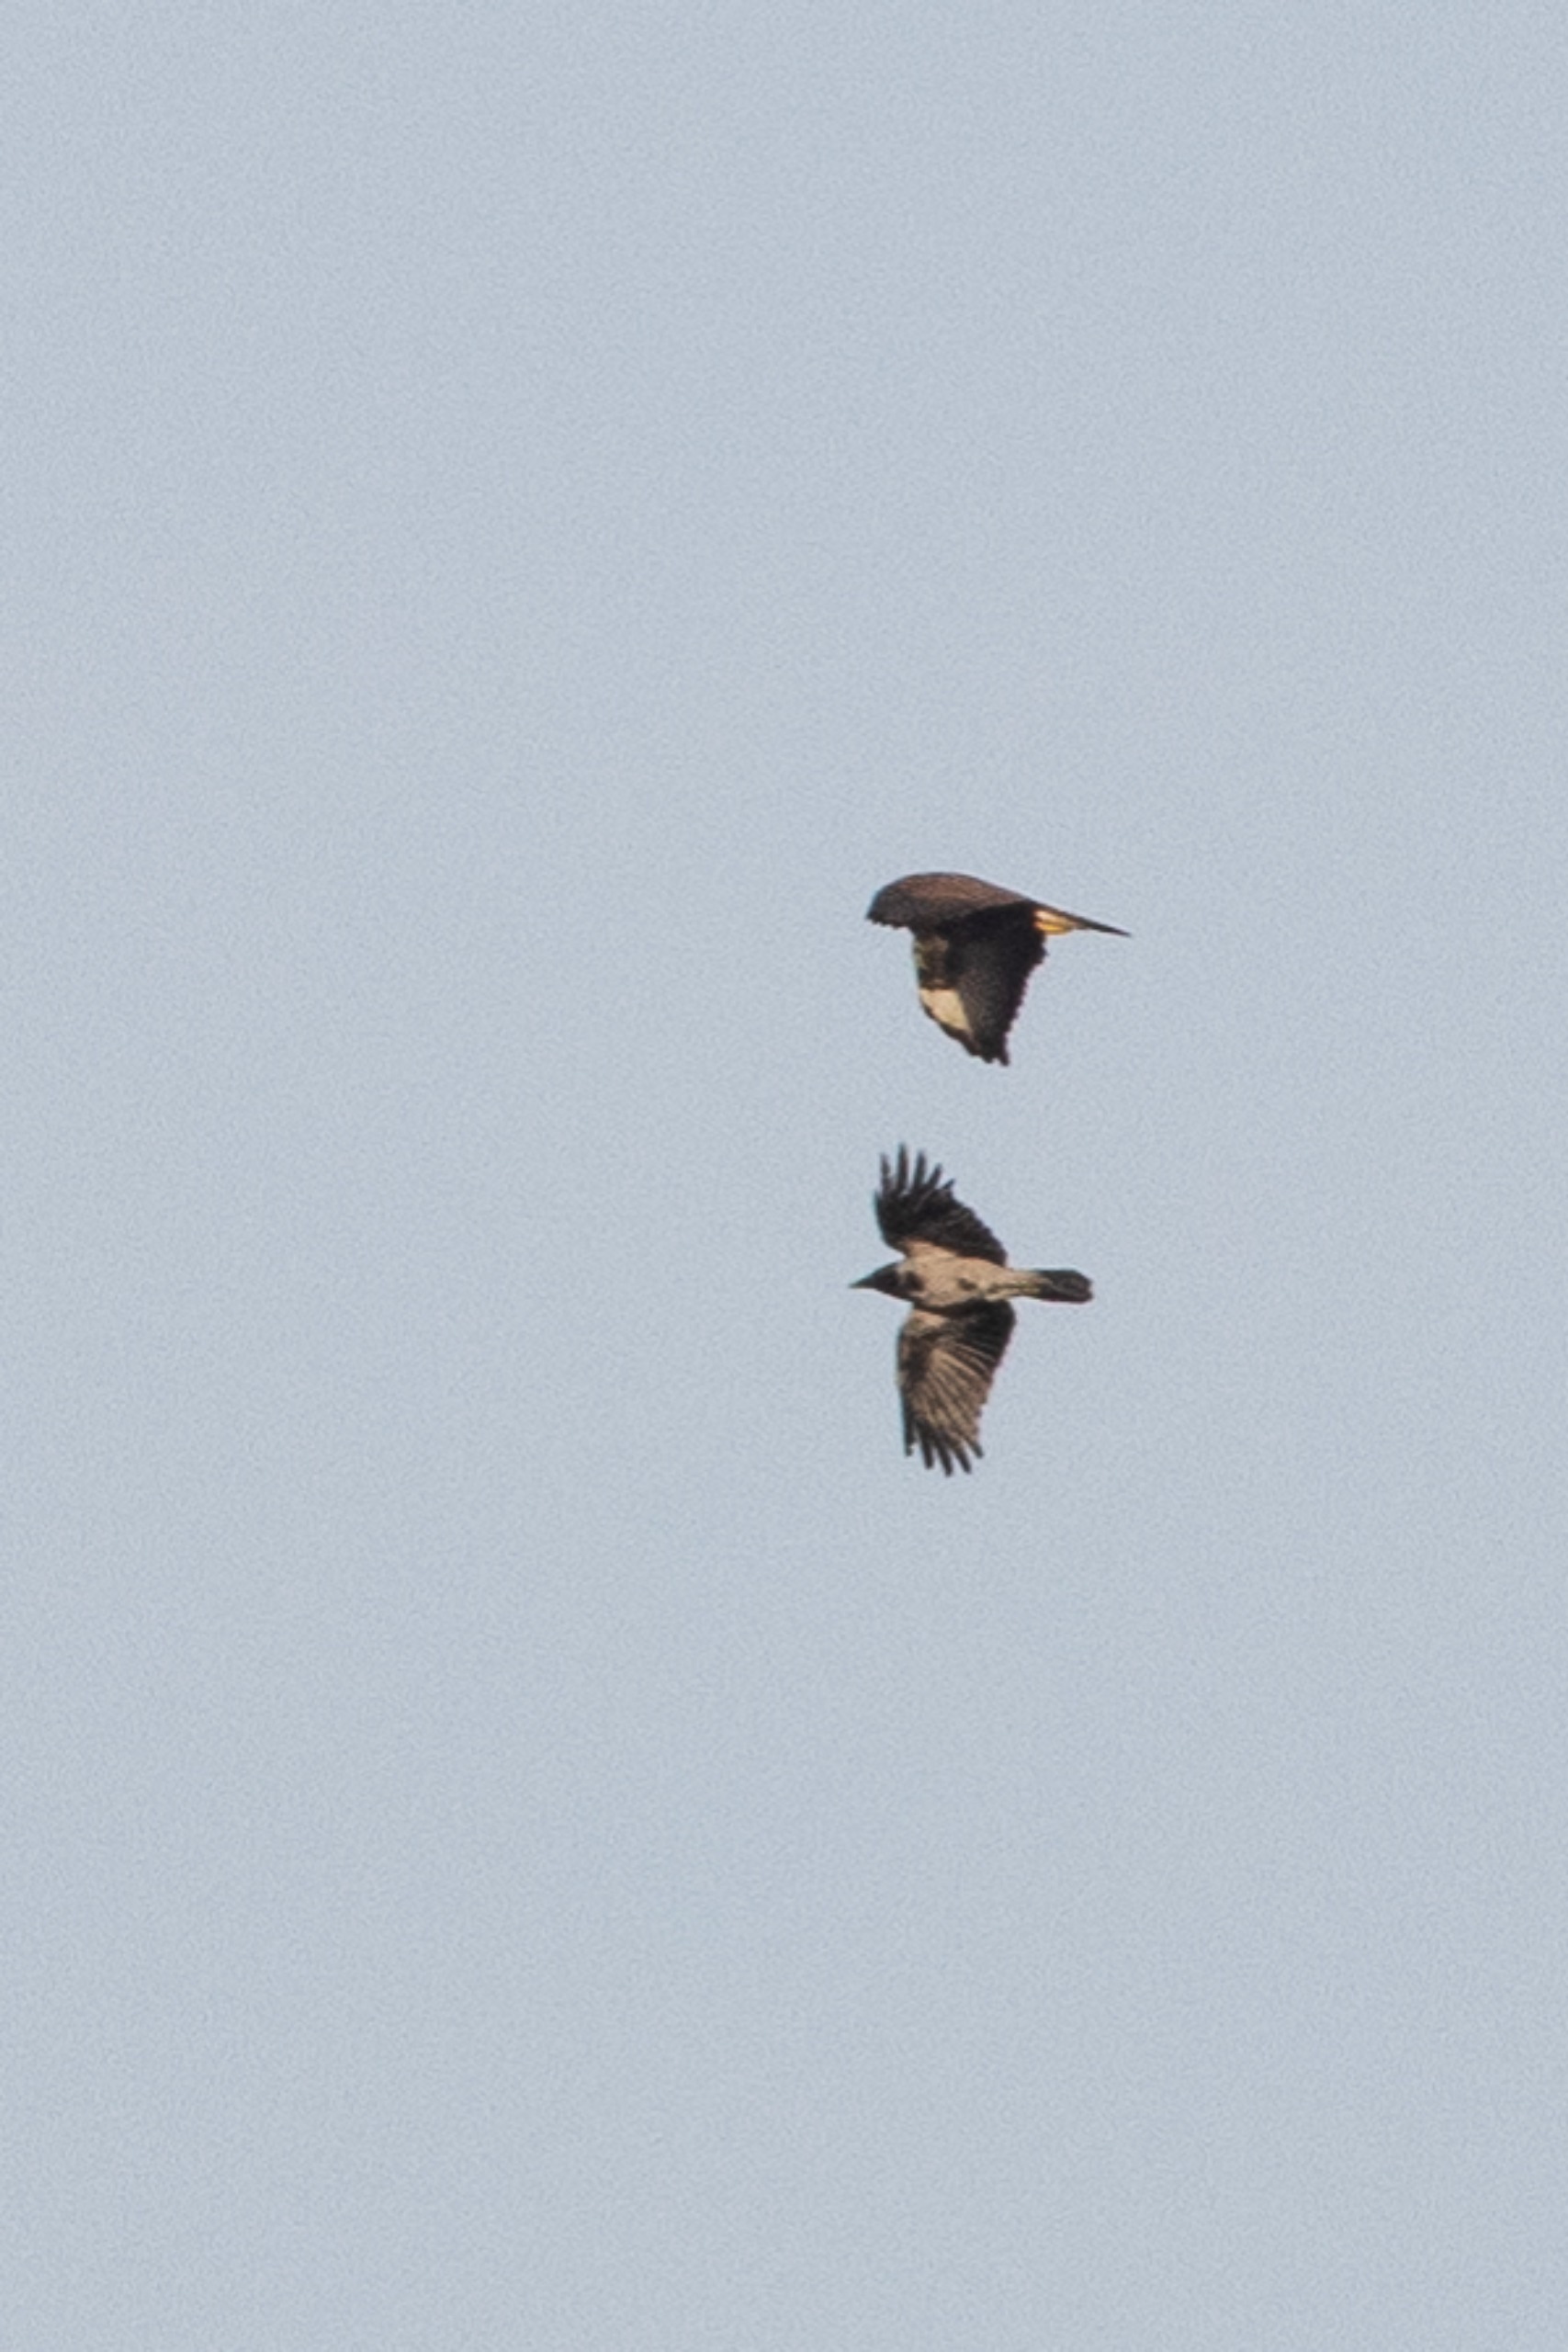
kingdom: Animalia
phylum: Chordata
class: Aves
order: Accipitriformes
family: Accipitridae
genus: Buteo
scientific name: Buteo buteo
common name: Musvåge
